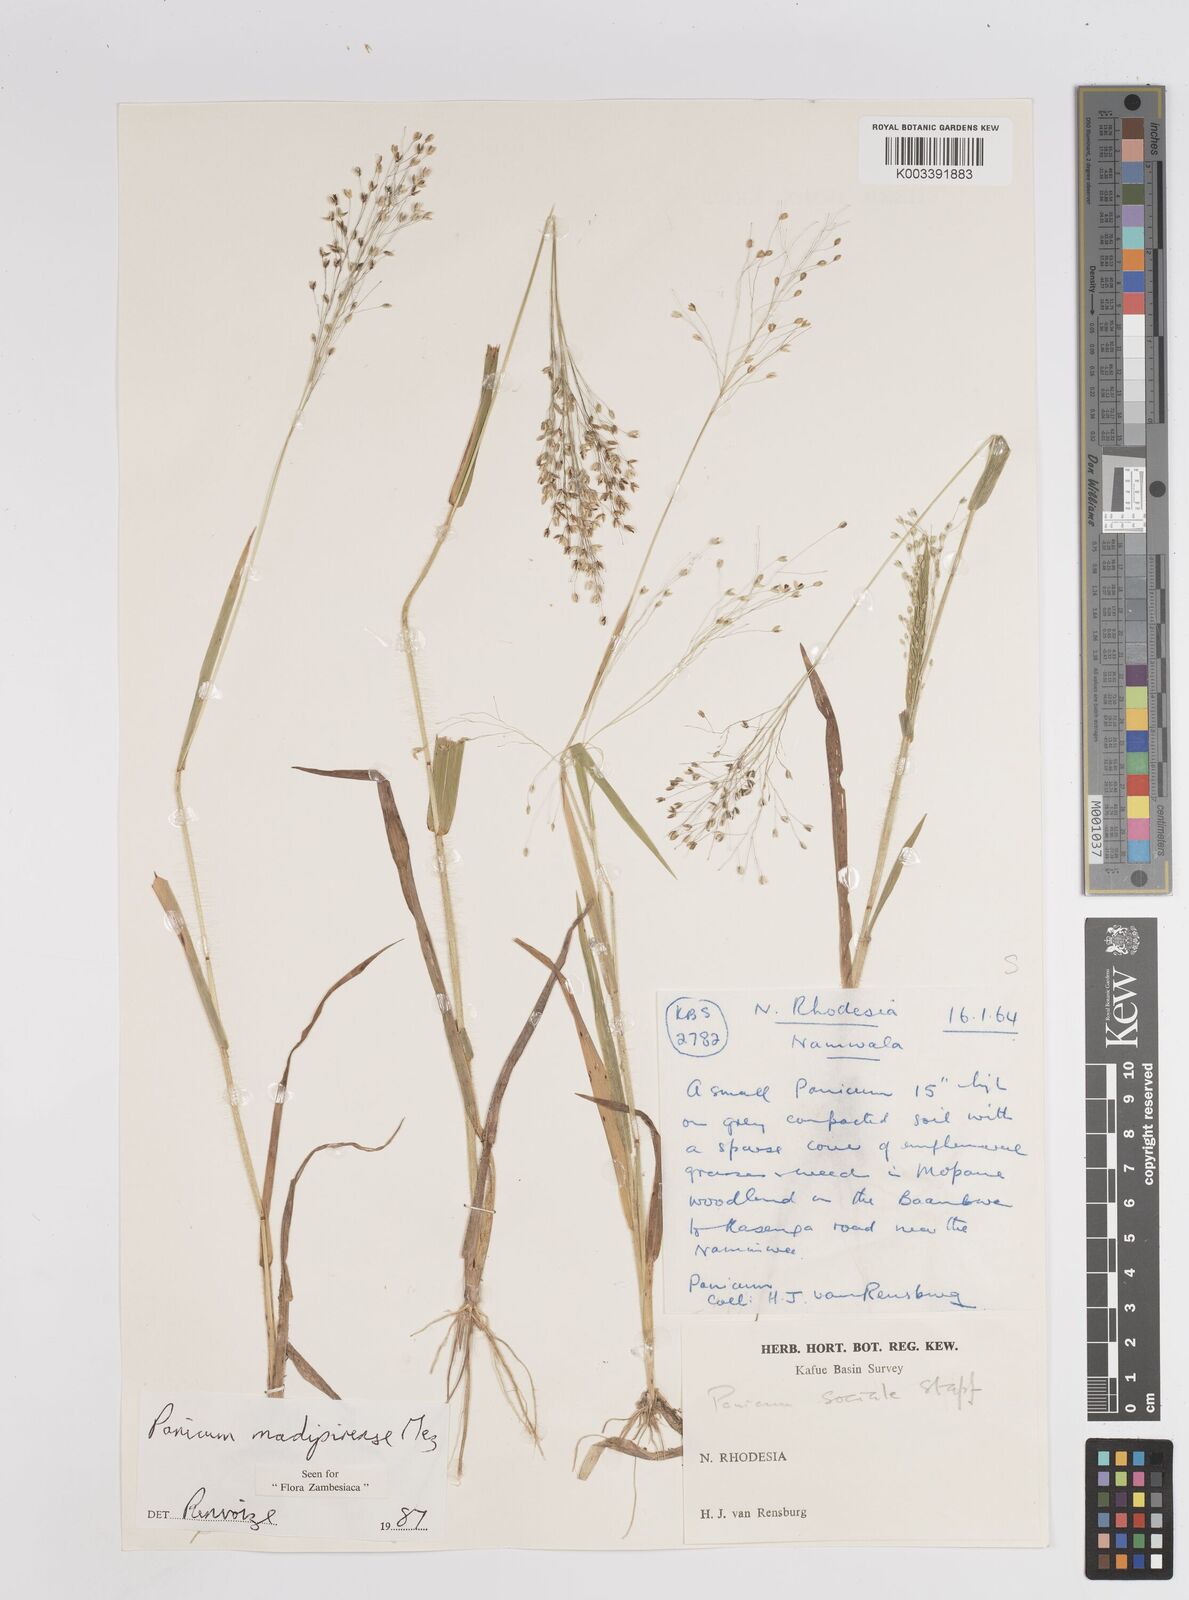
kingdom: Plantae
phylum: Tracheophyta
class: Liliopsida
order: Poales
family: Poaceae
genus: Panicum
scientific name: Panicum madipirense
